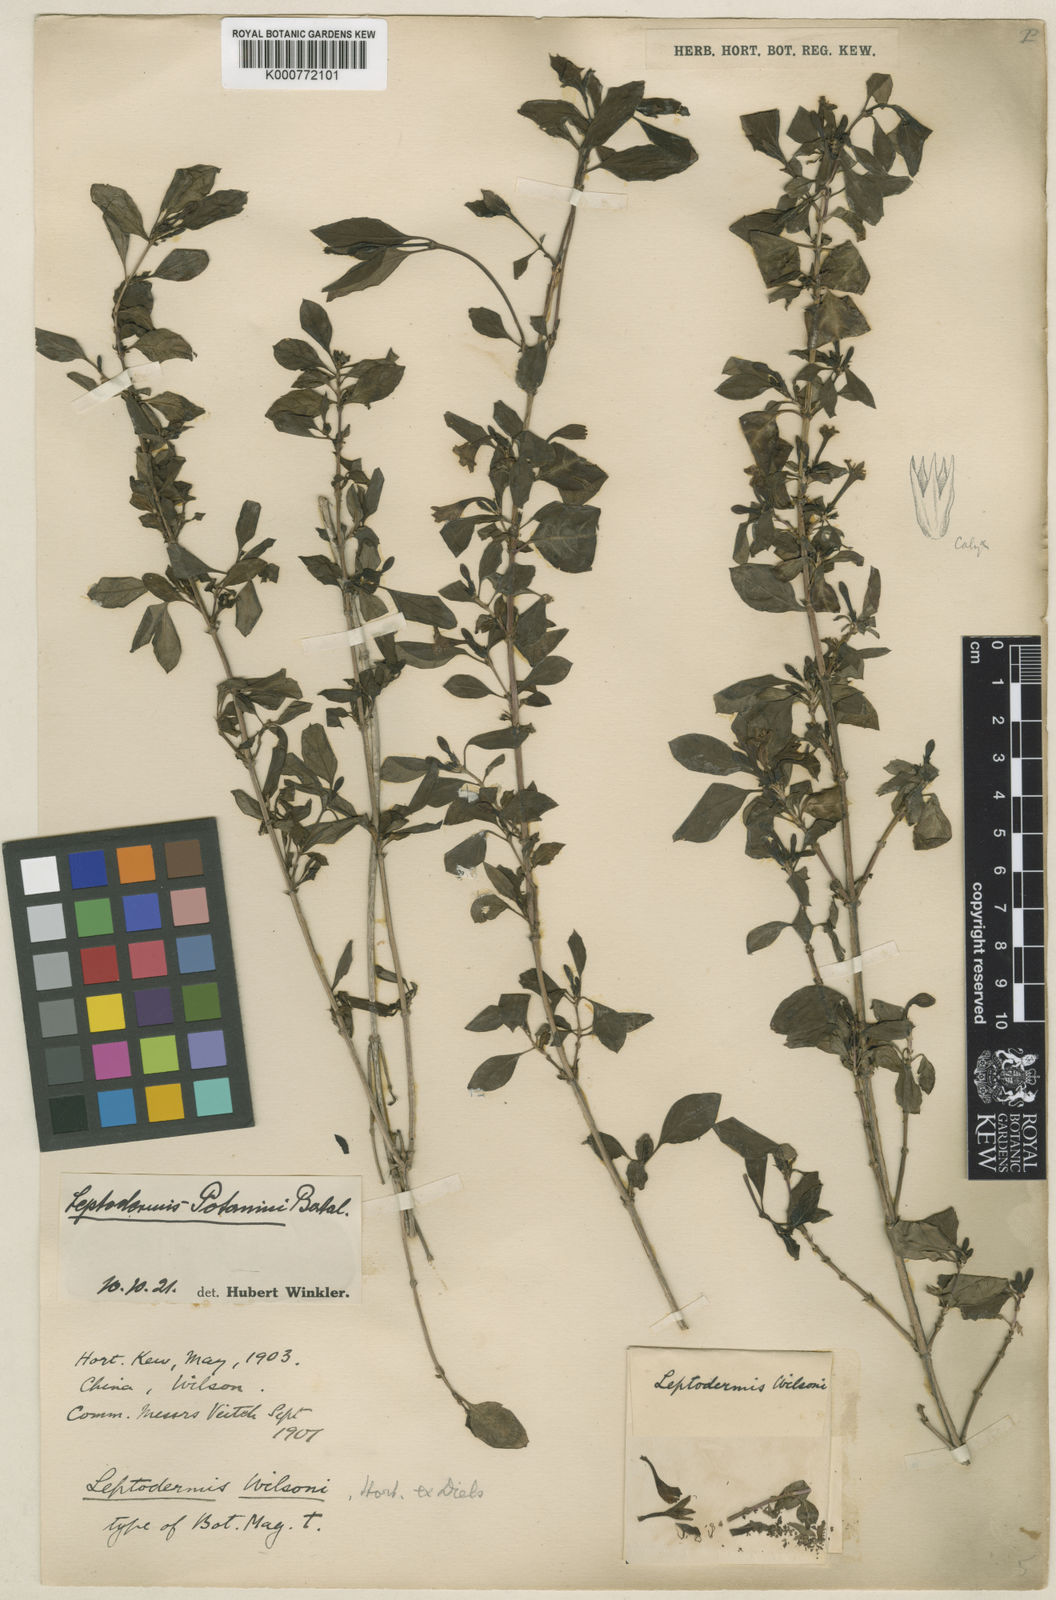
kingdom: Plantae
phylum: Tracheophyta
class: Magnoliopsida
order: Gentianales
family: Rubiaceae
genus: Leptodermis
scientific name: Leptodermis wilsonii
